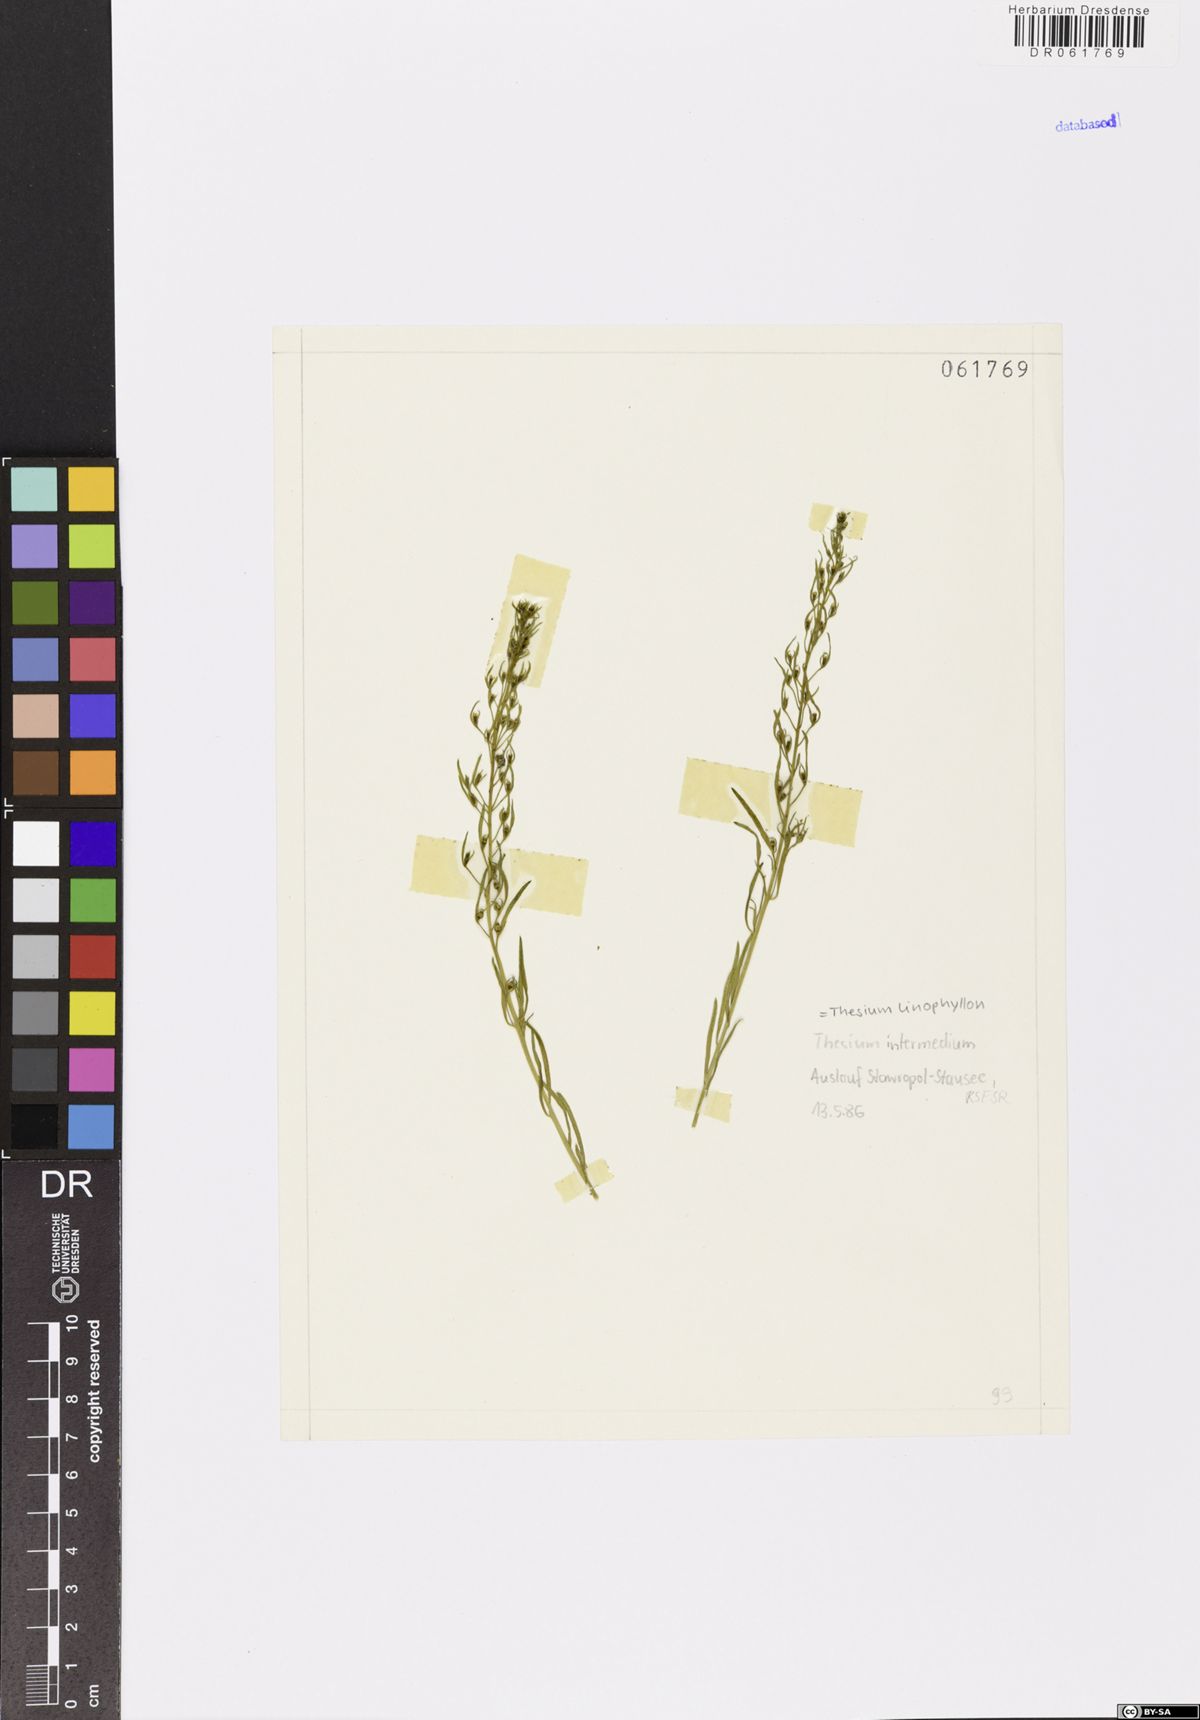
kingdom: Plantae
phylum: Tracheophyta
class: Magnoliopsida
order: Santalales
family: Thesiaceae
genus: Thesium
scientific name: Thesium linophyllon
